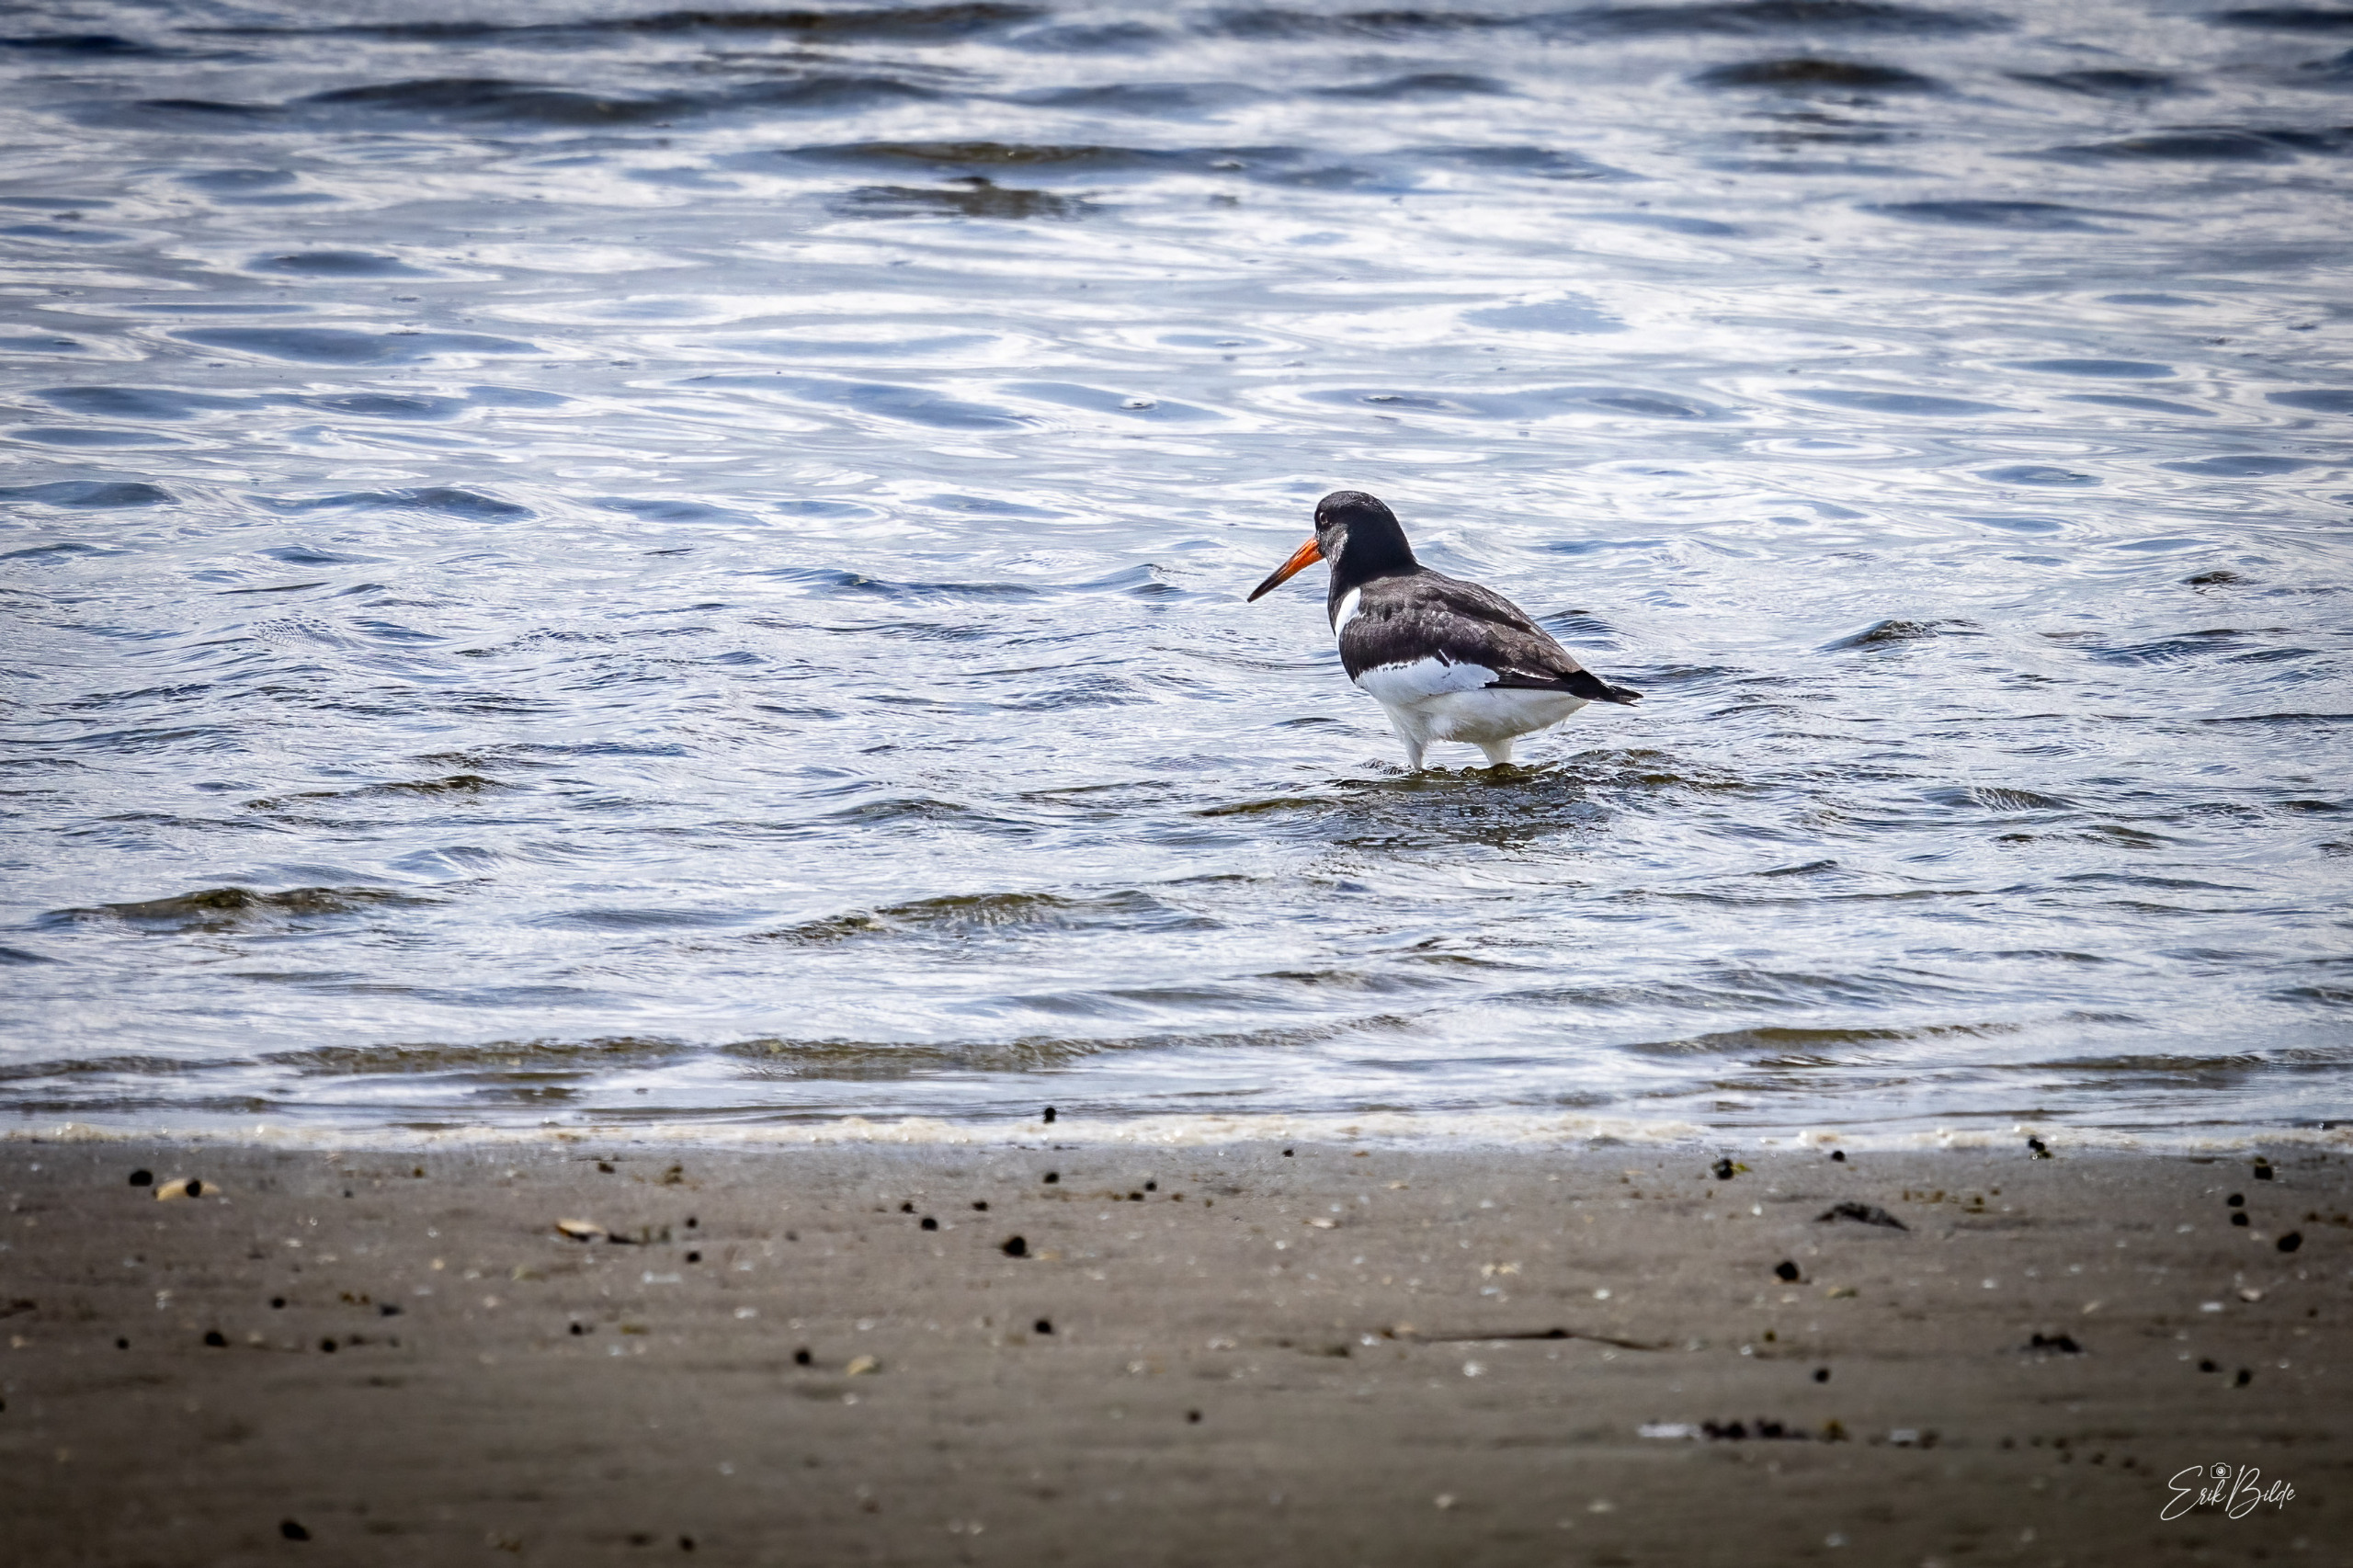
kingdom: Animalia
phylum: Chordata
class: Aves
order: Charadriiformes
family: Haematopodidae
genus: Haematopus
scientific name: Haematopus ostralegus
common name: Strandskade
